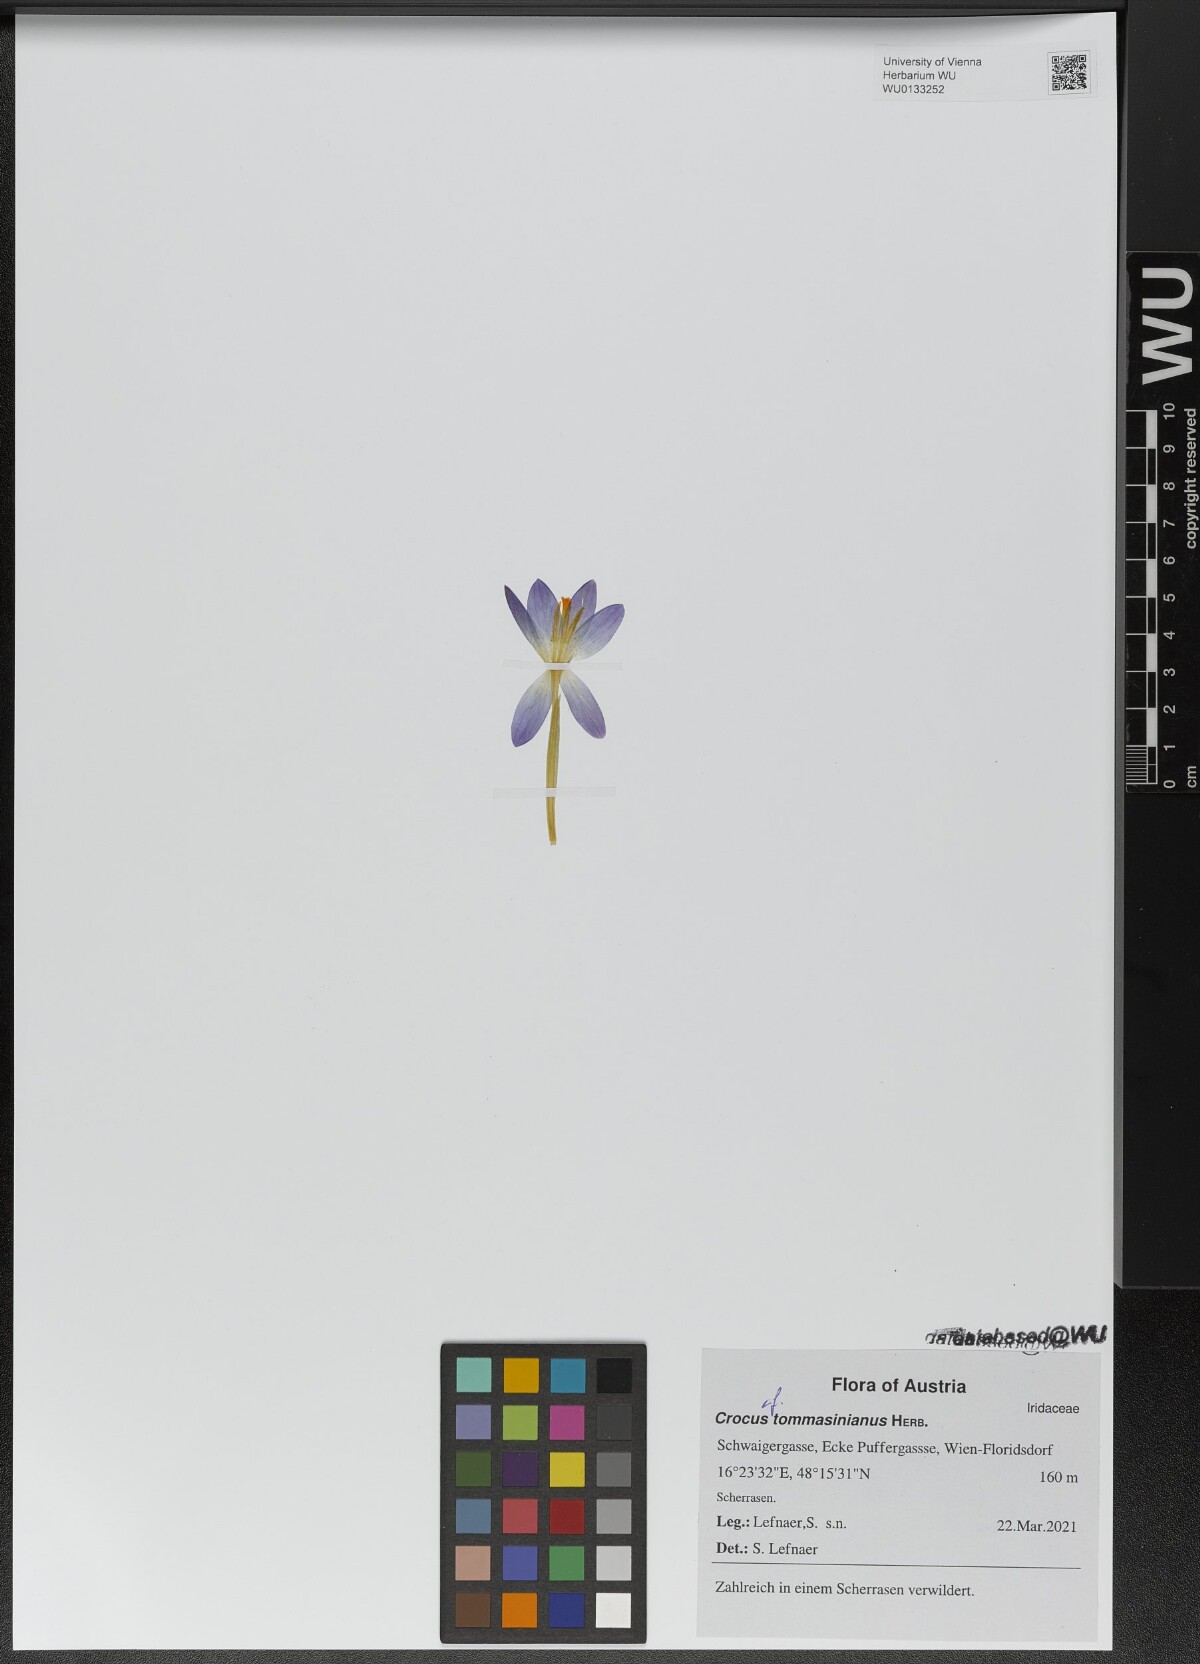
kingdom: Plantae
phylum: Tracheophyta
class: Liliopsida
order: Asparagales
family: Iridaceae
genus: Crocus
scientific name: Crocus tommasinianus
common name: Early crocus
